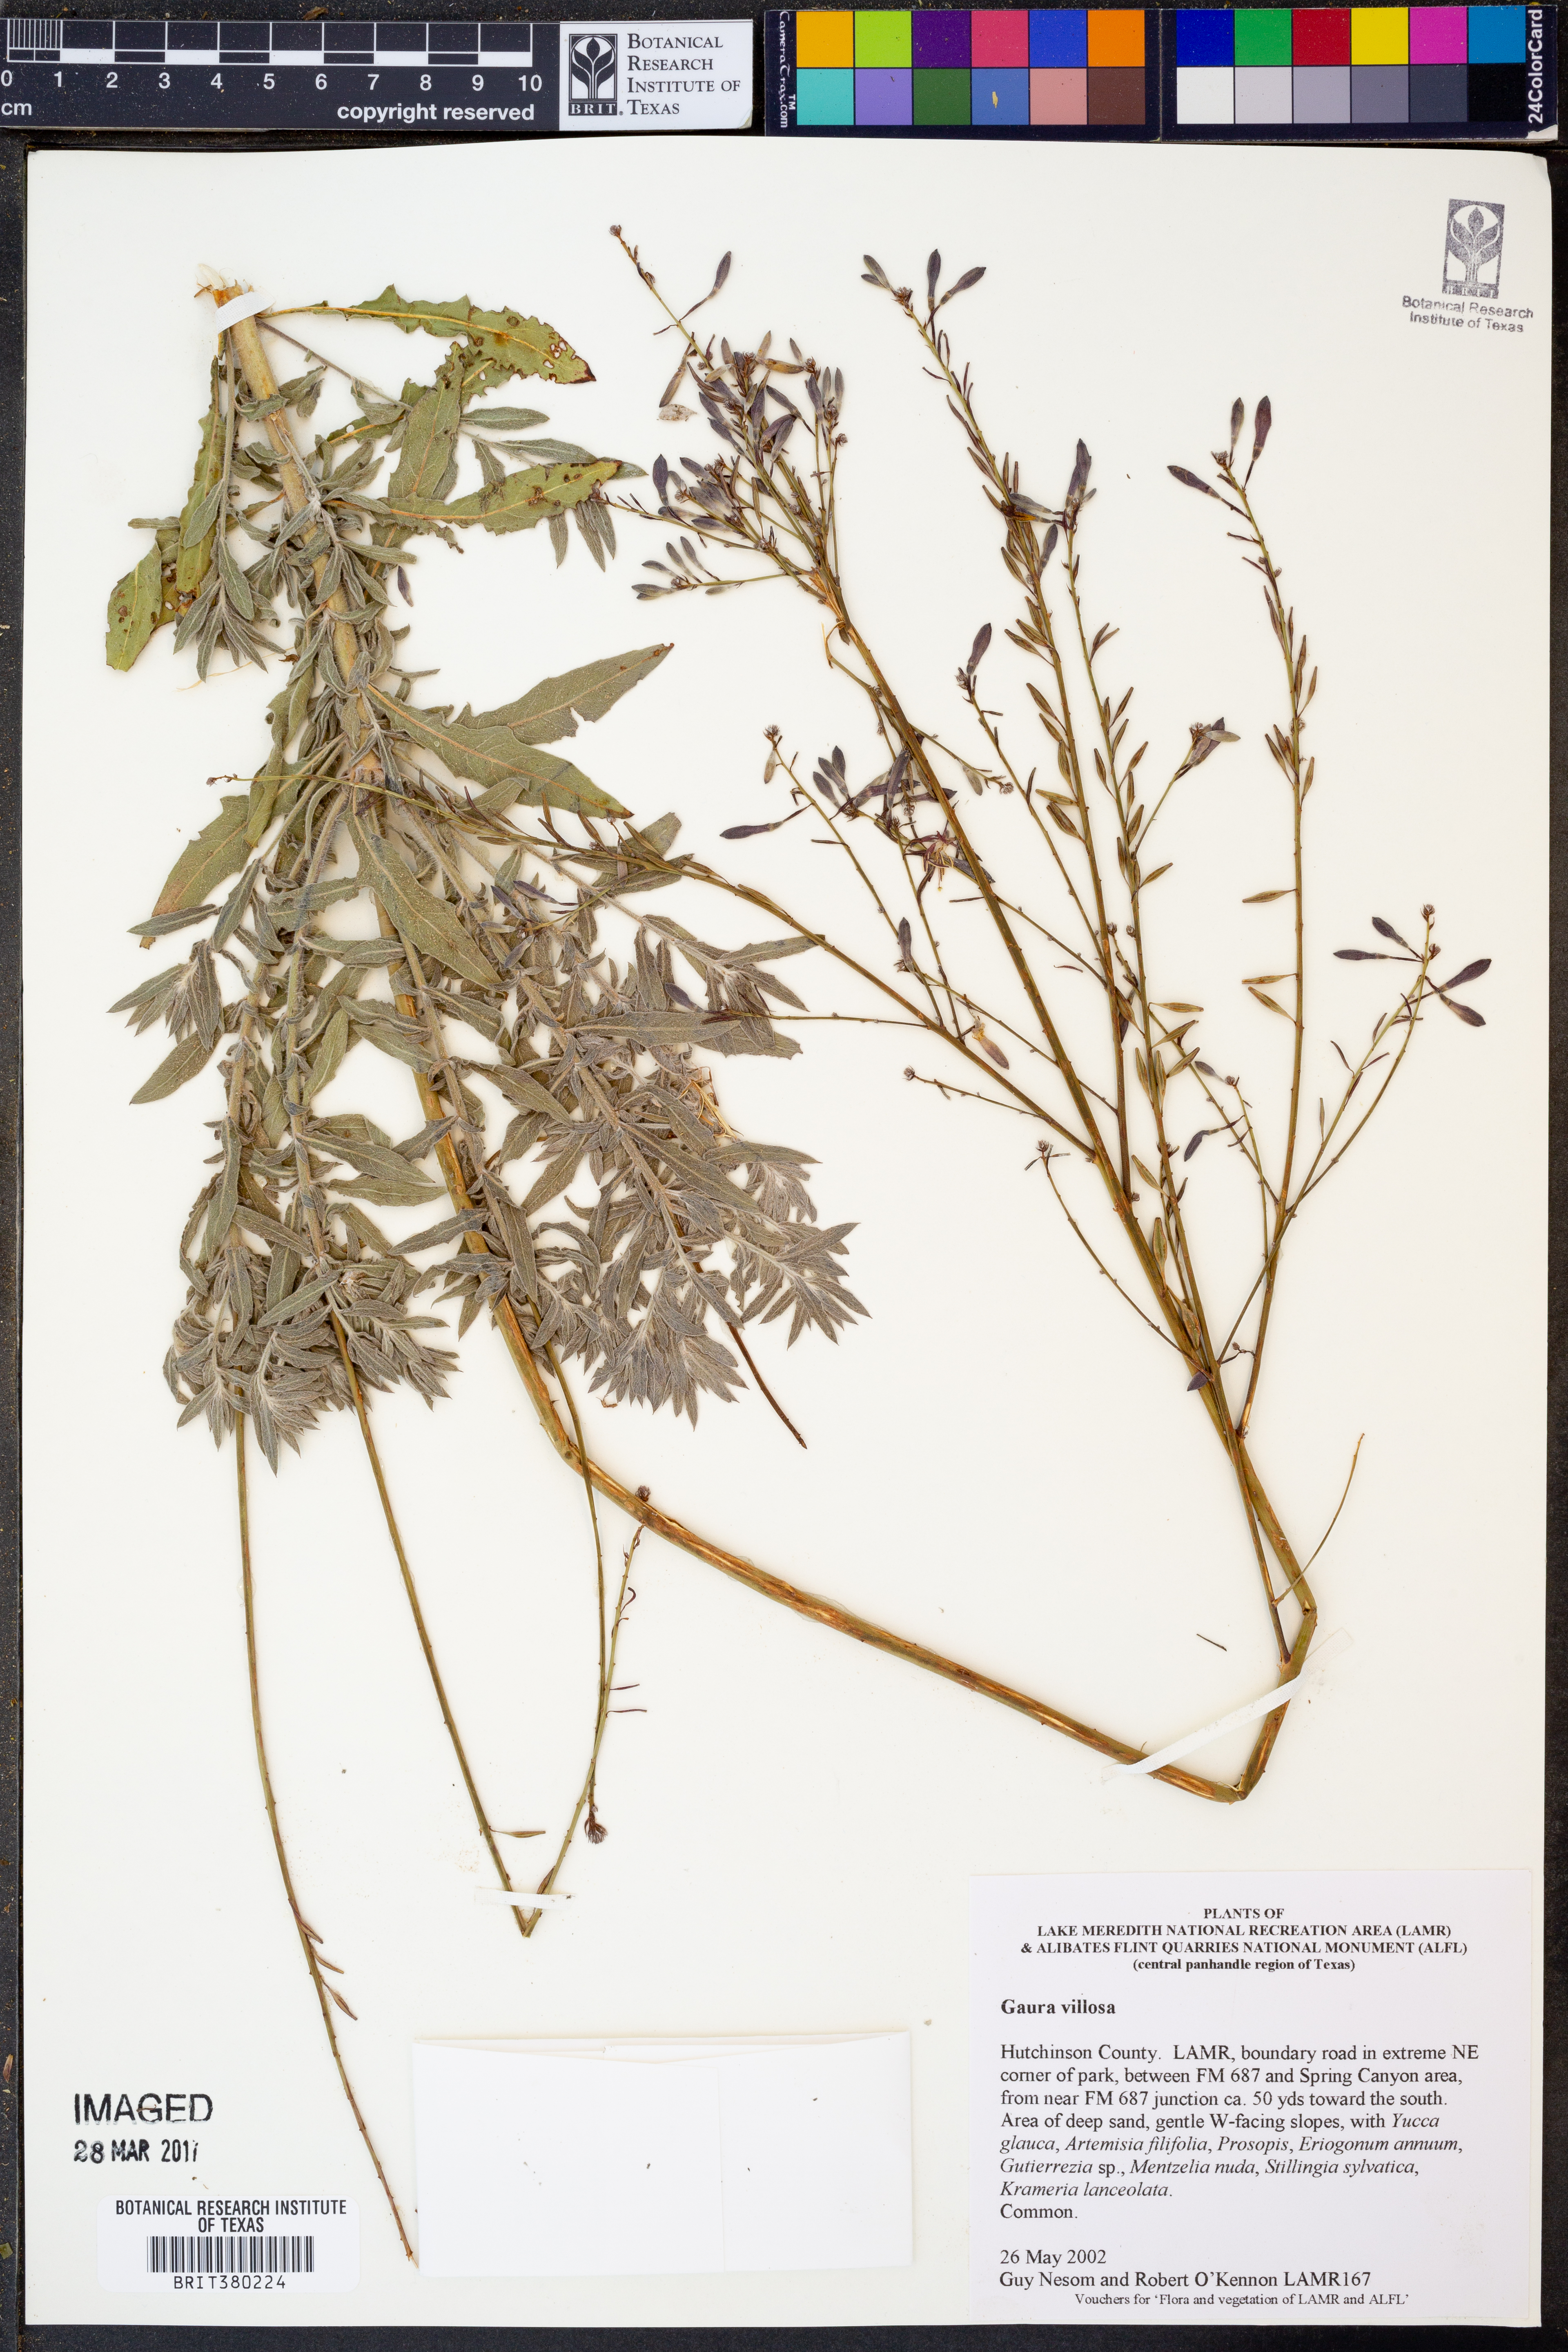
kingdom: Plantae
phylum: Tracheophyta
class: Magnoliopsida
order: Myrtales
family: Onagraceae
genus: Oenothera
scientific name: Oenothera cinerea
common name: Woolly beeblossom
